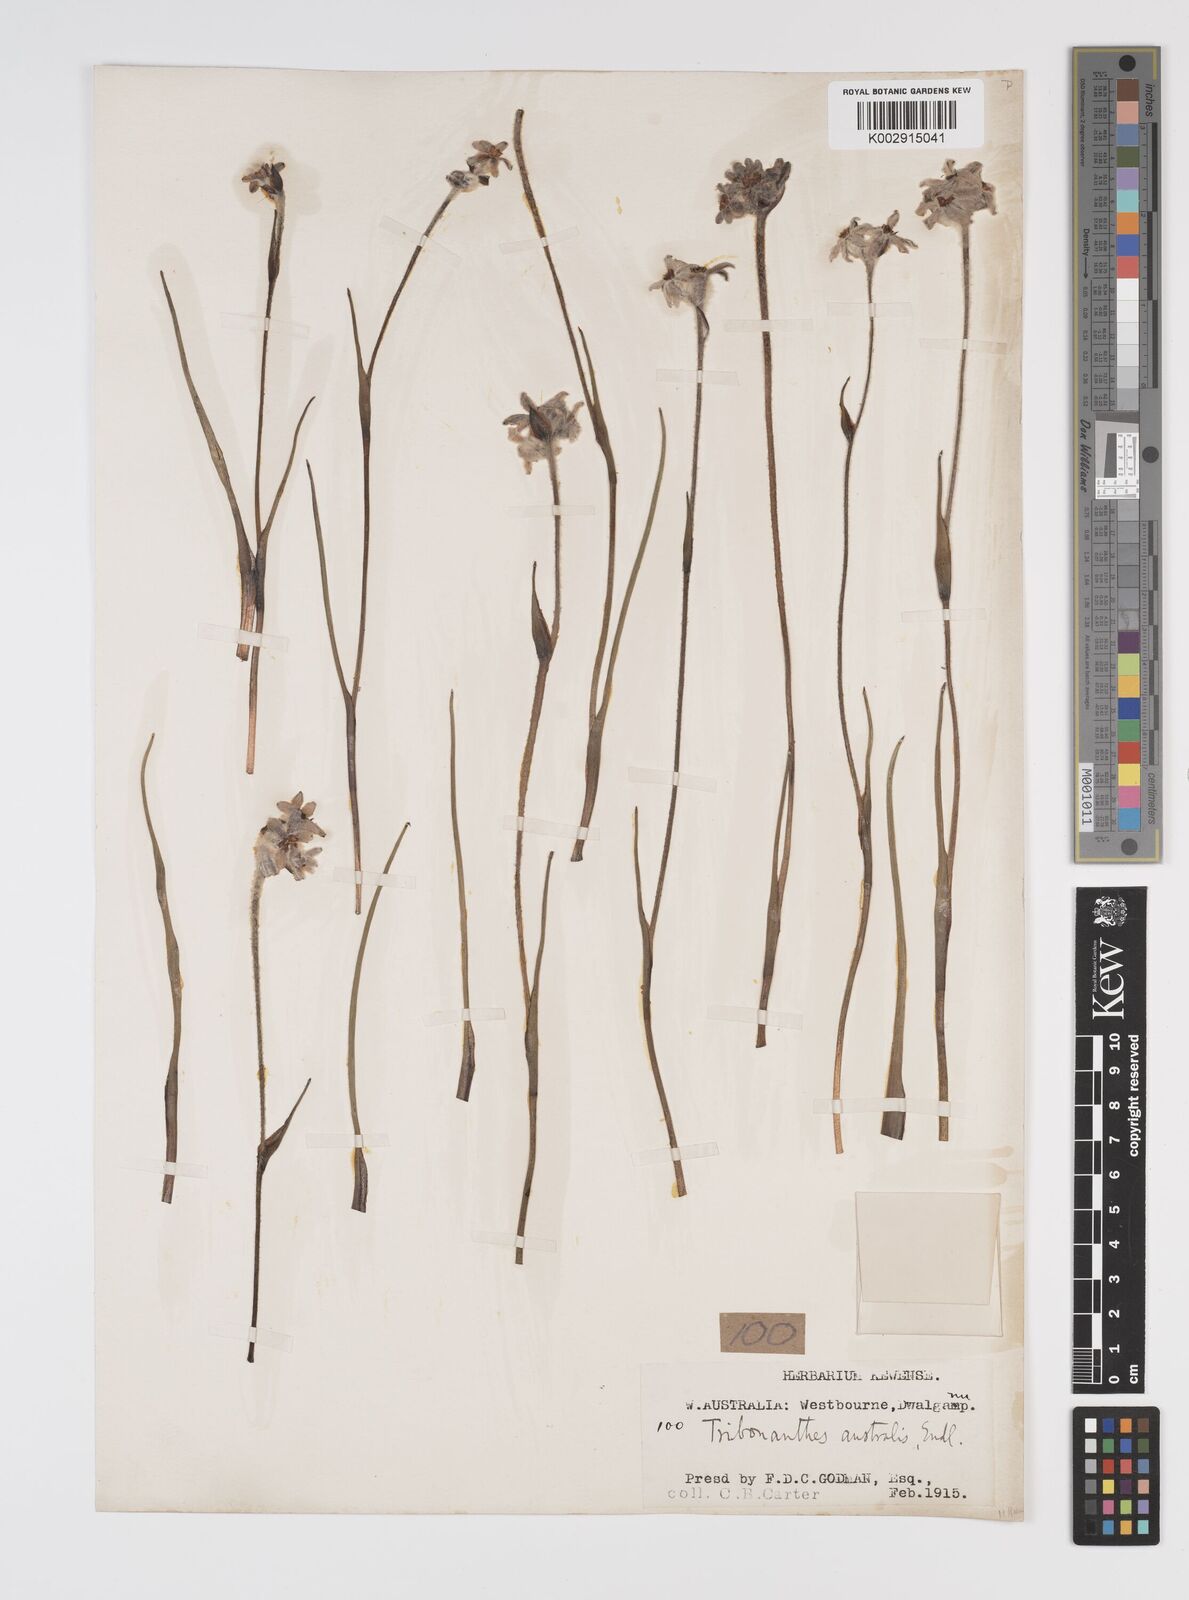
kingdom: Plantae
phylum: Tracheophyta
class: Liliopsida
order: Commelinales
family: Haemodoraceae
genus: Tribonanthes
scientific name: Tribonanthes australis
